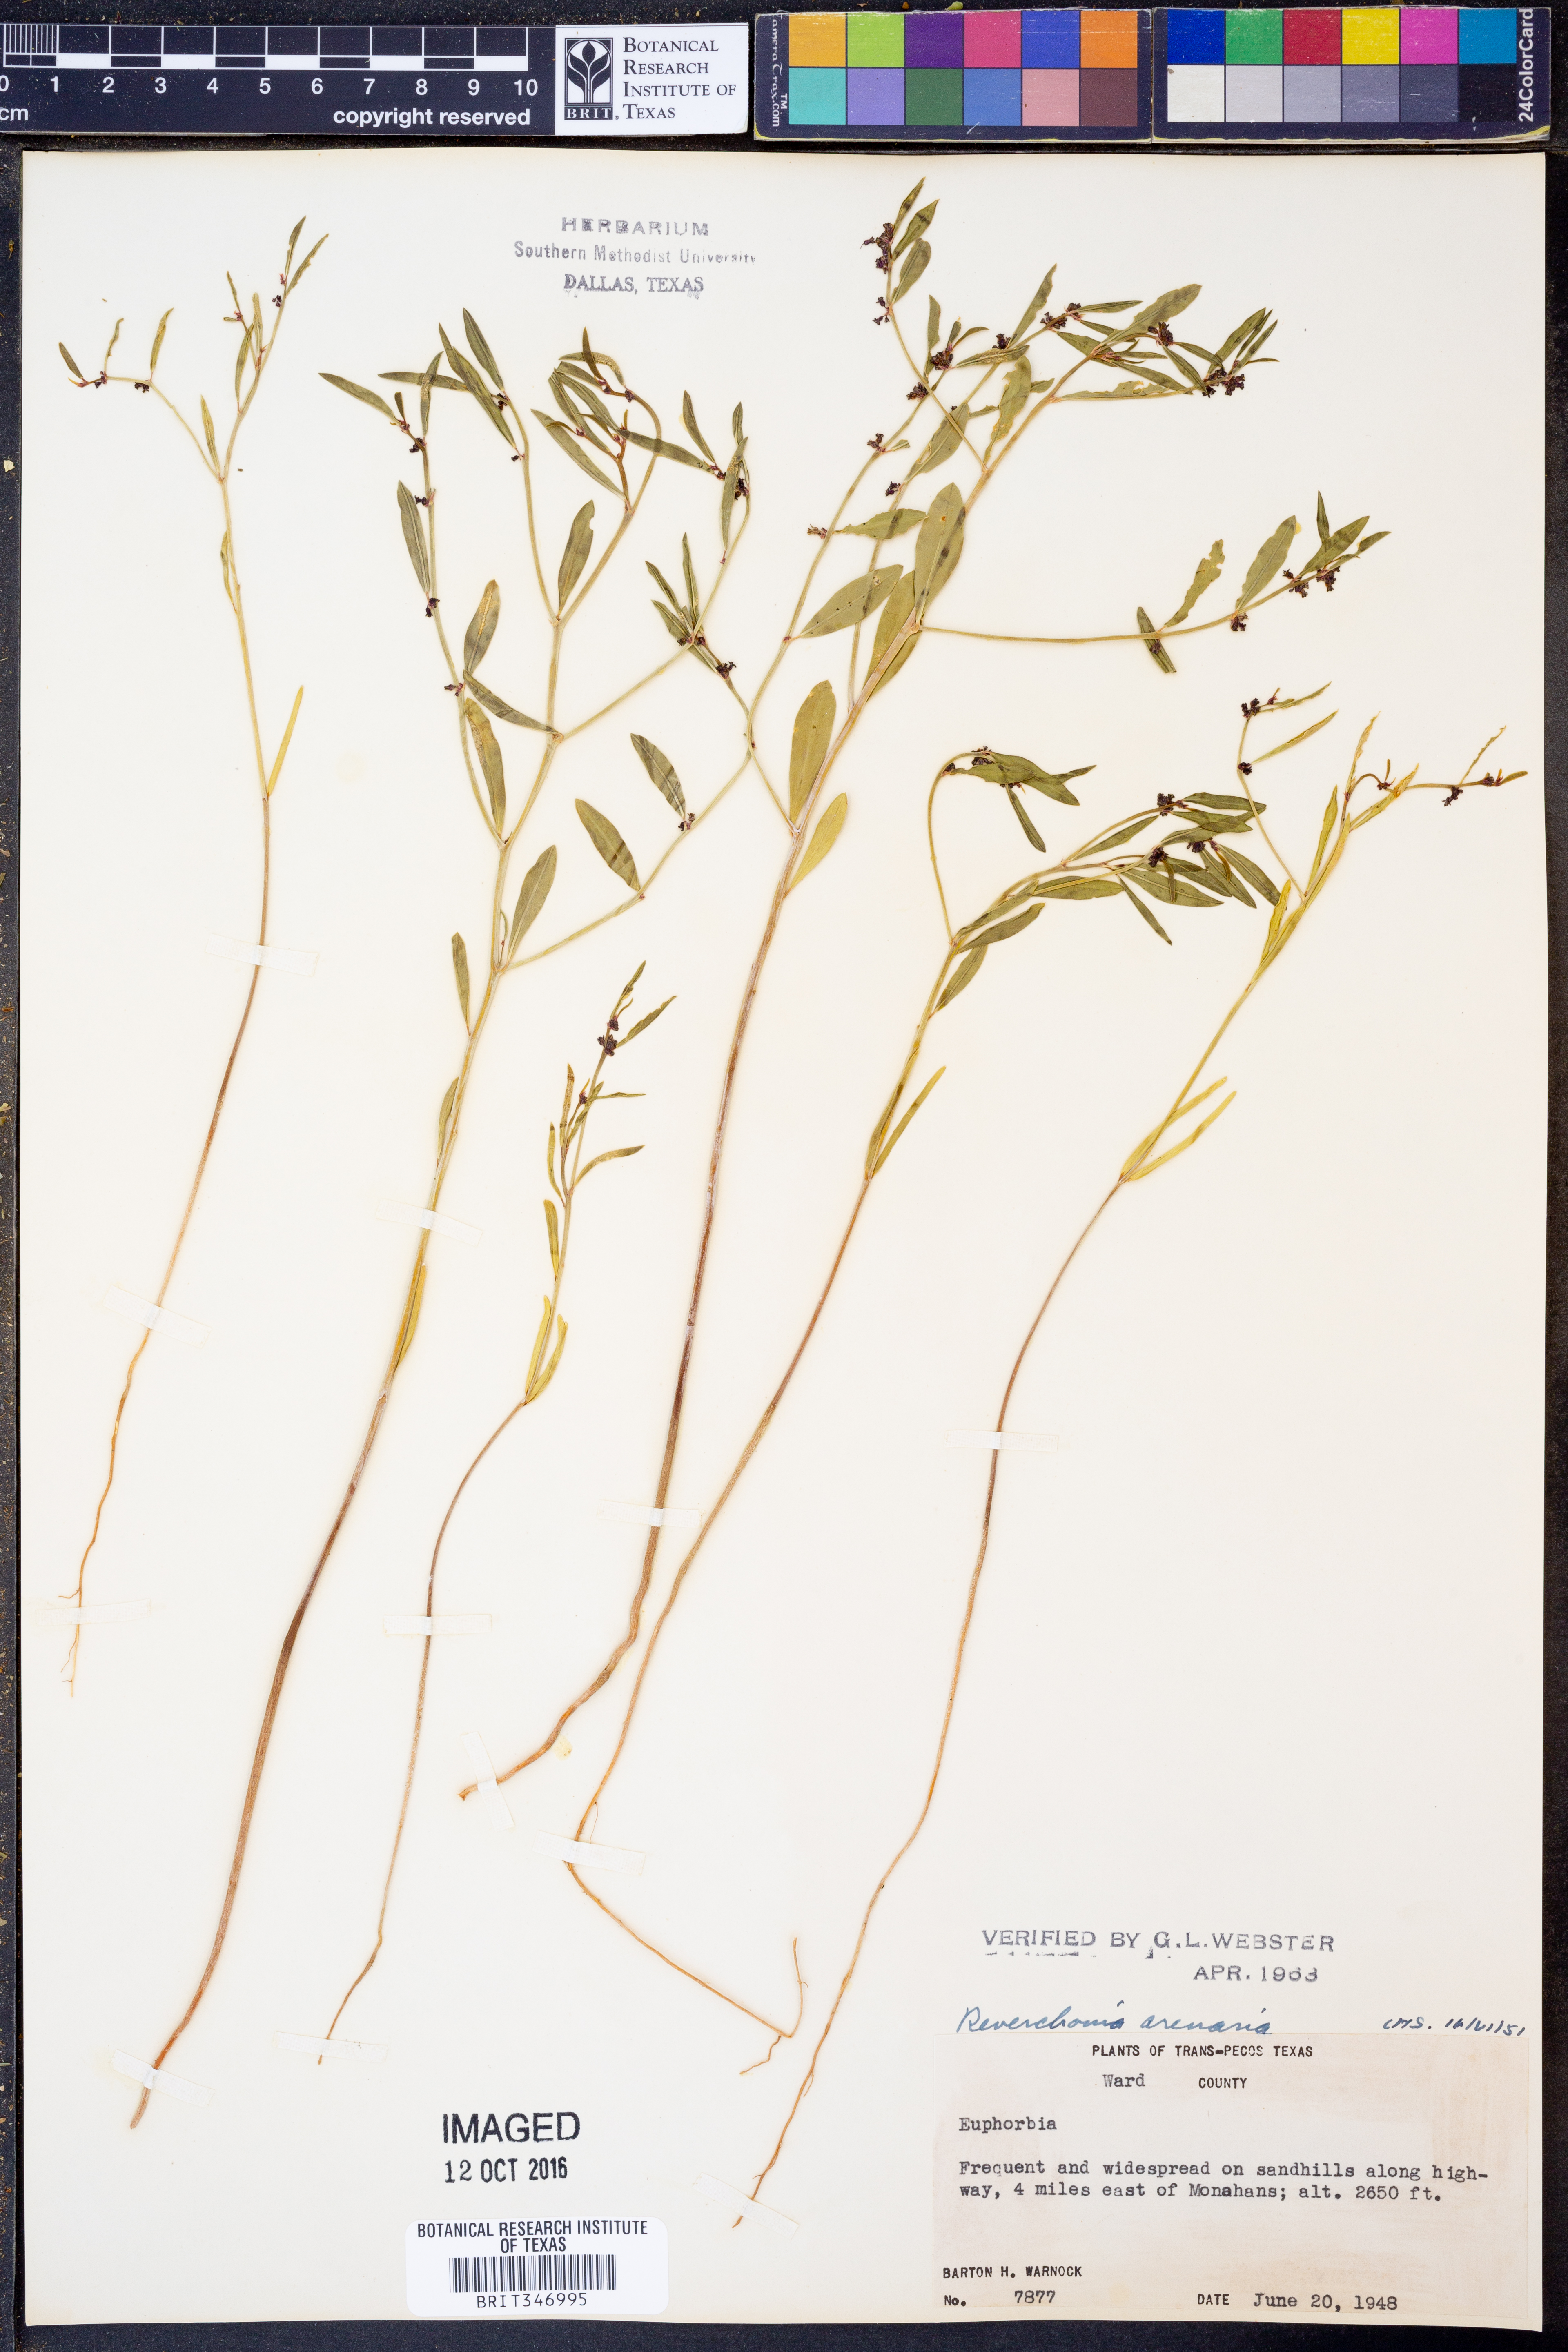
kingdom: Plantae
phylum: Tracheophyta
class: Magnoliopsida
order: Malpighiales
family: Phyllanthaceae
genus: Phyllanthus
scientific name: Phyllanthus warnockii
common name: Sand reverchonia
